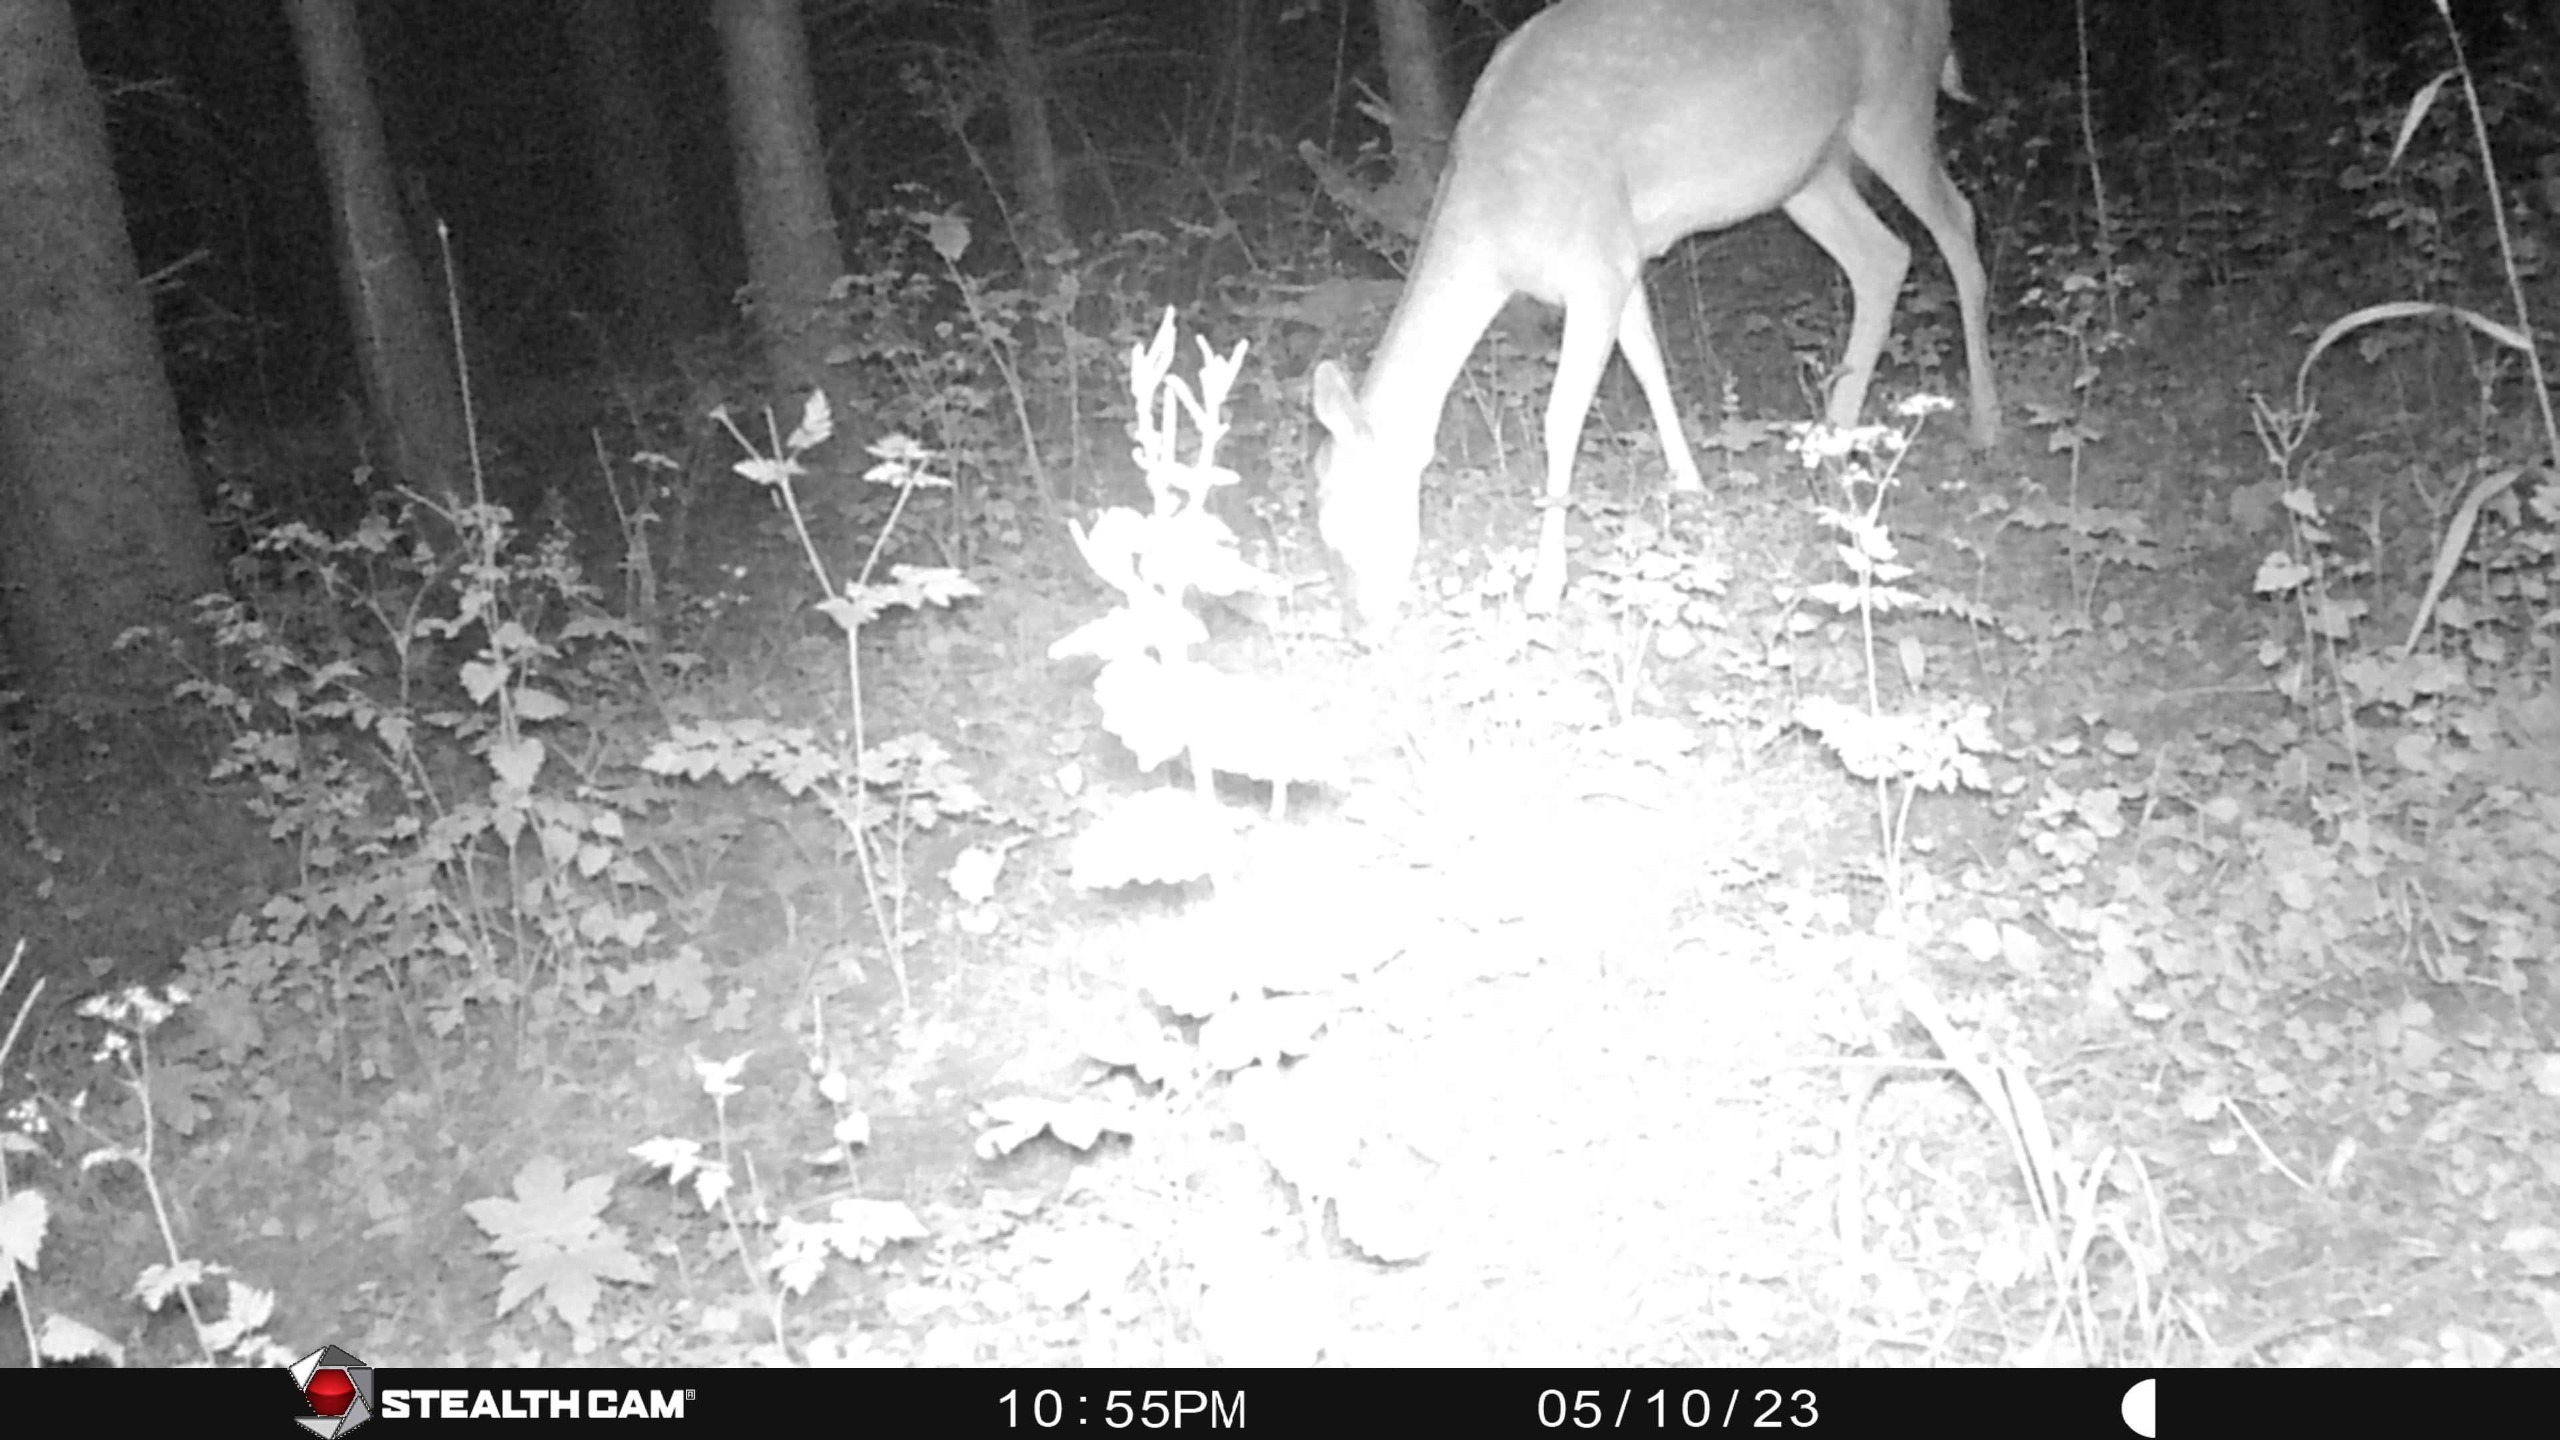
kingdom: Animalia
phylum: Chordata
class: Mammalia
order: Artiodactyla
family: Cervidae
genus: Dama
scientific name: Dama dama
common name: Dådyr
